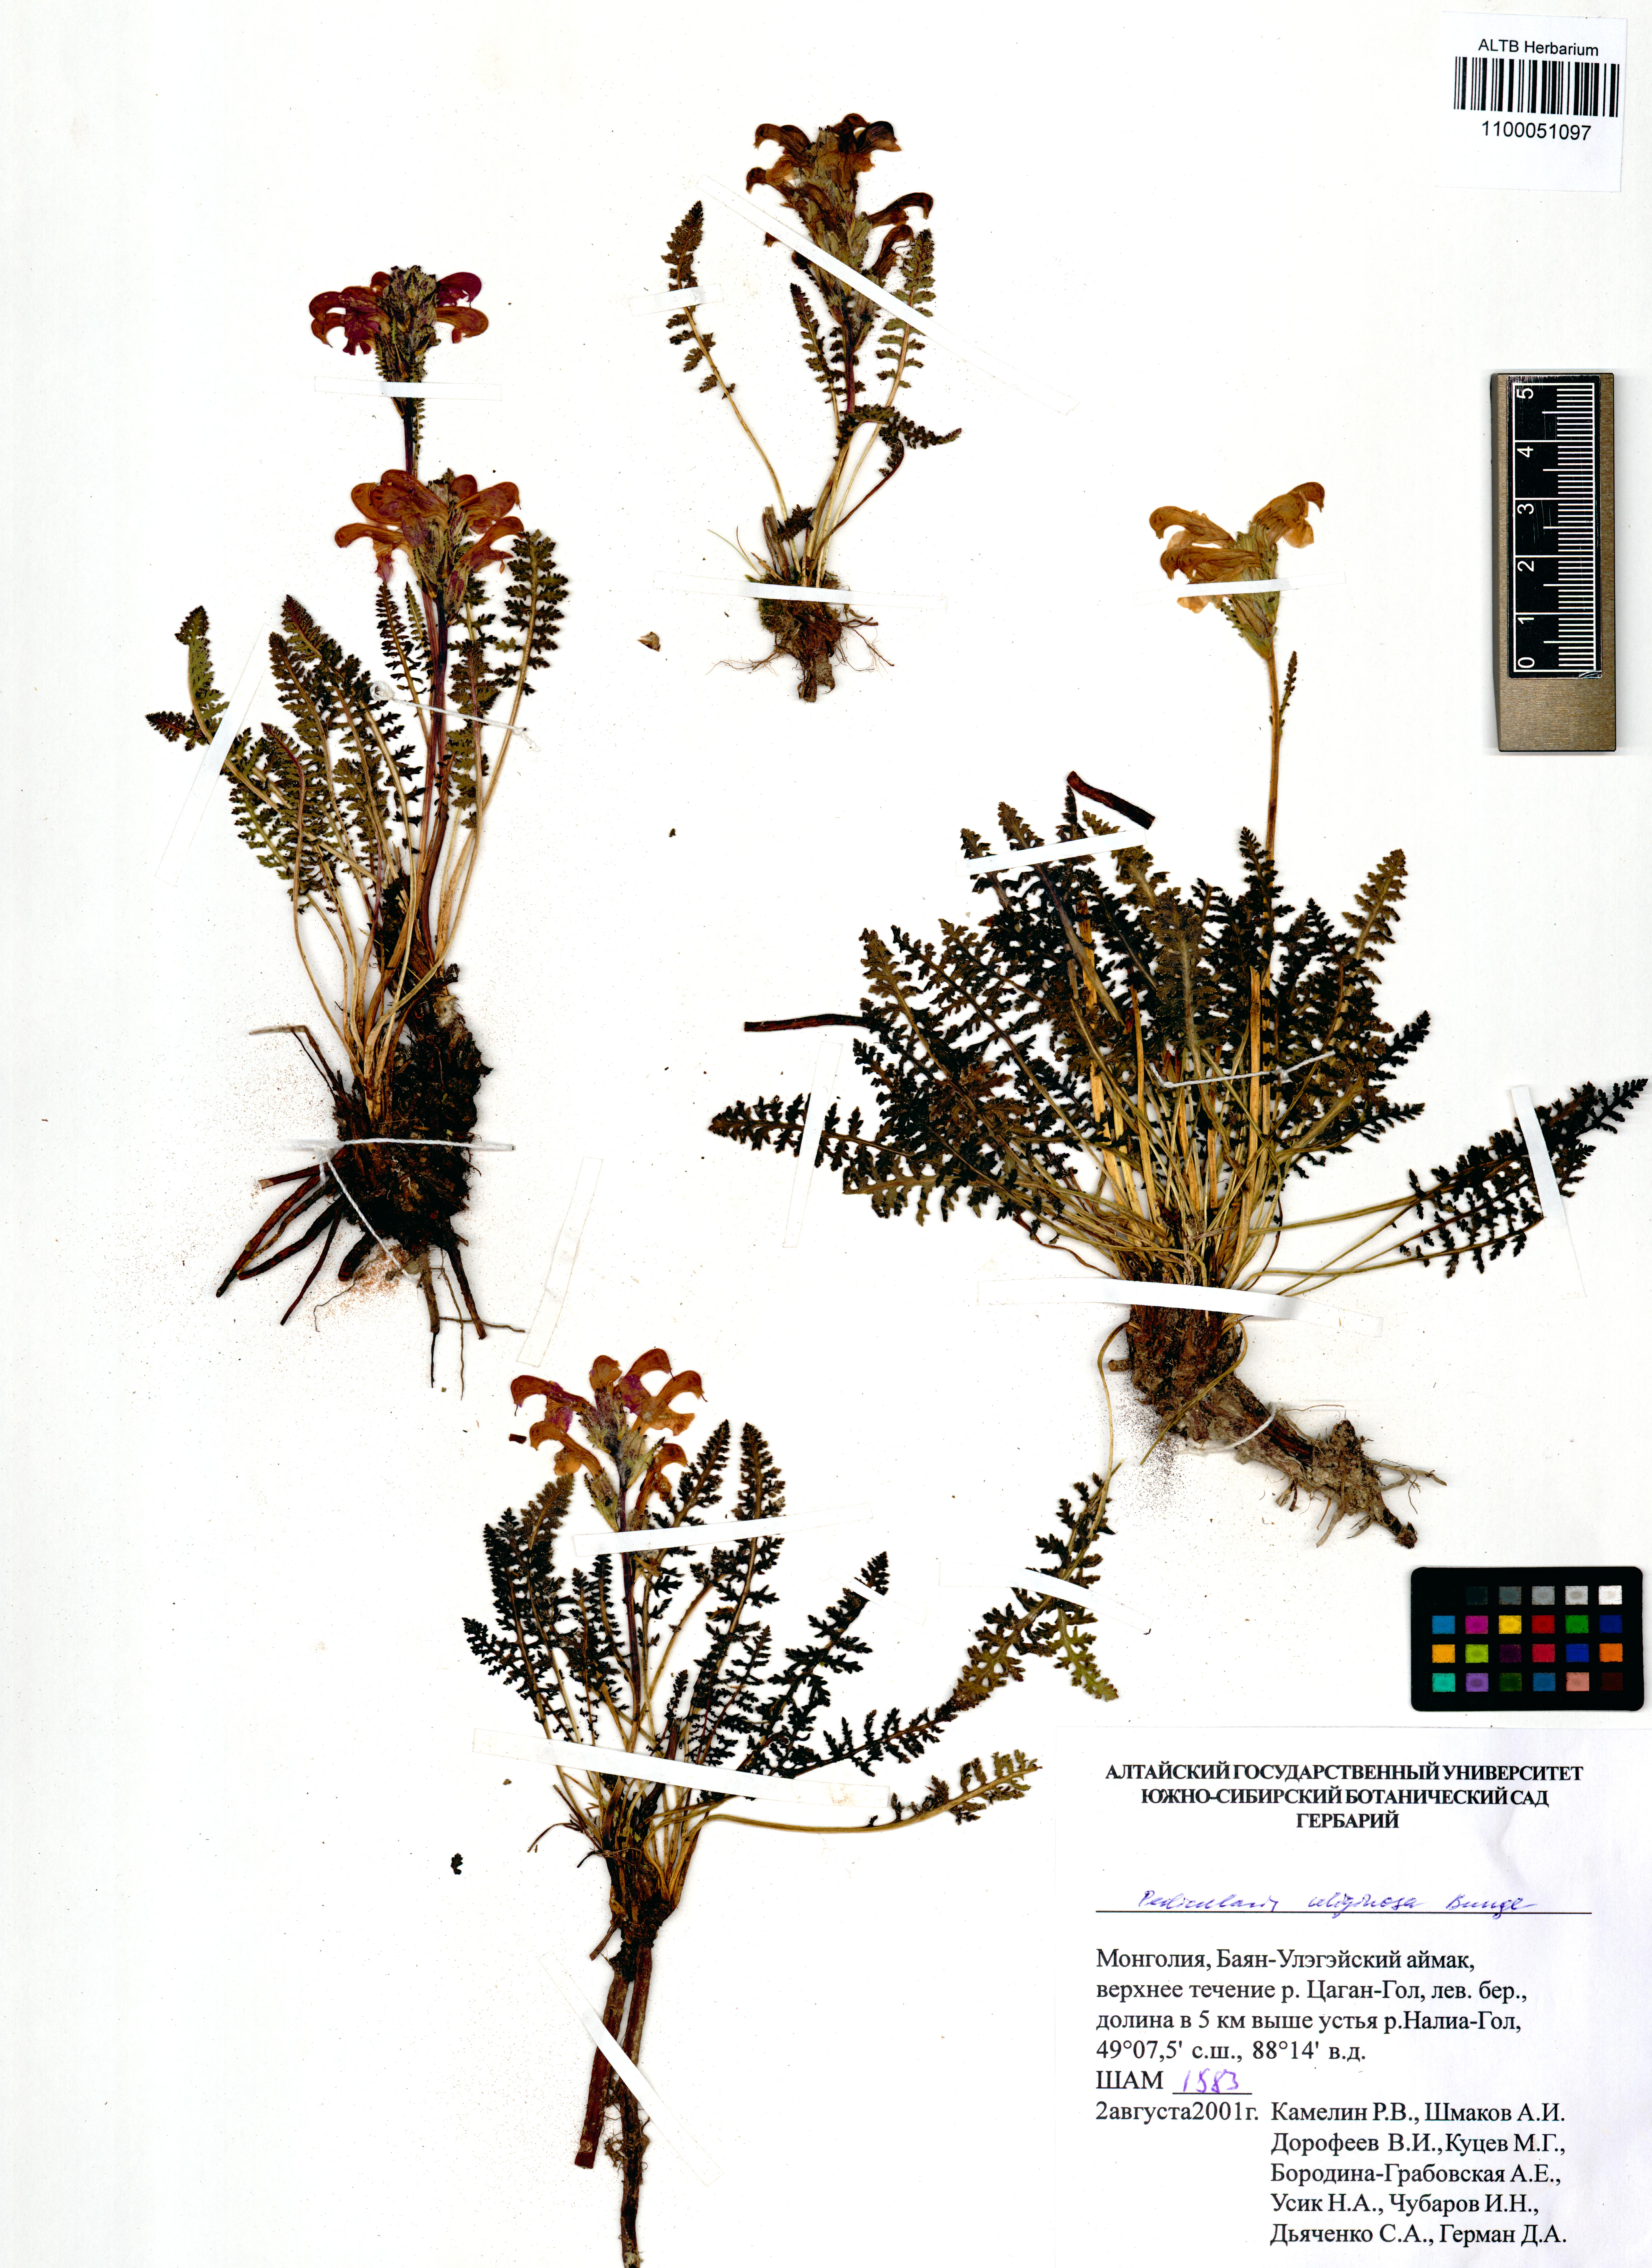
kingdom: Plantae
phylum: Tracheophyta
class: Magnoliopsida
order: Lamiales
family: Orobanchaceae
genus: Pedicularis
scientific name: Pedicularis uliginosa
